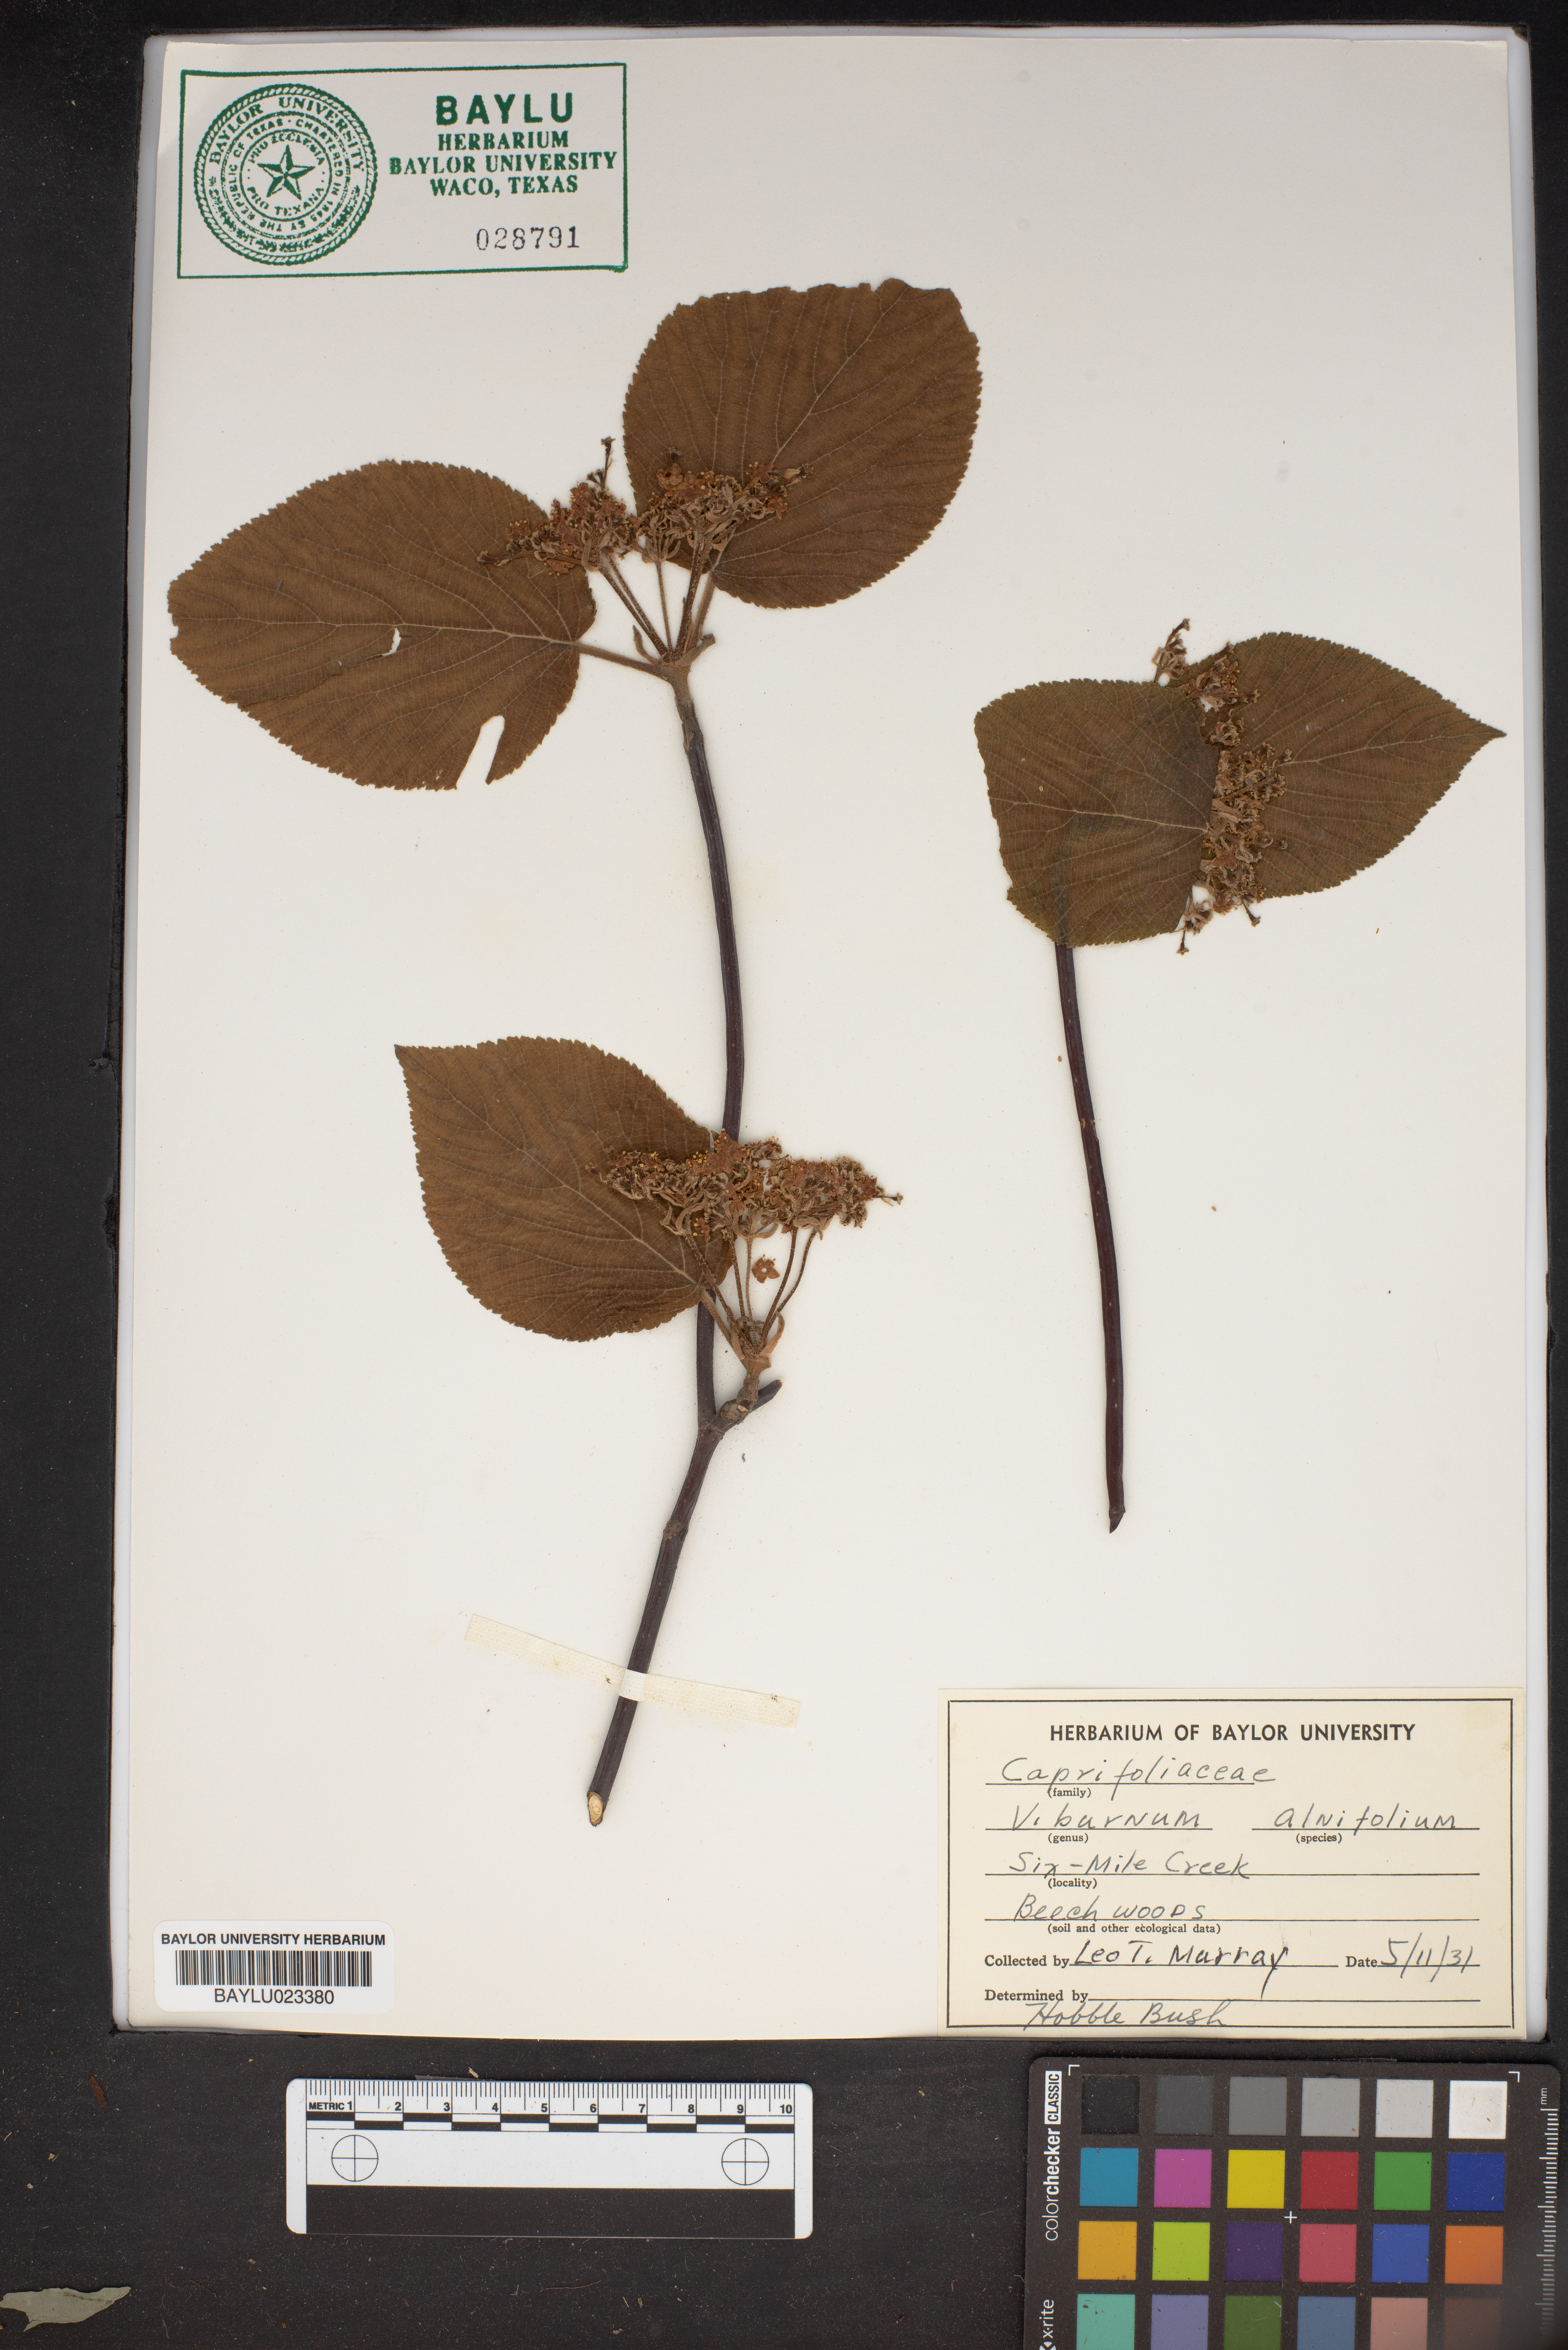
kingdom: Plantae
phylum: Tracheophyta
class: Magnoliopsida
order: Dipsacales
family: Viburnaceae
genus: Viburnum
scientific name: Viburnum lantanoides
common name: Hobblebush
